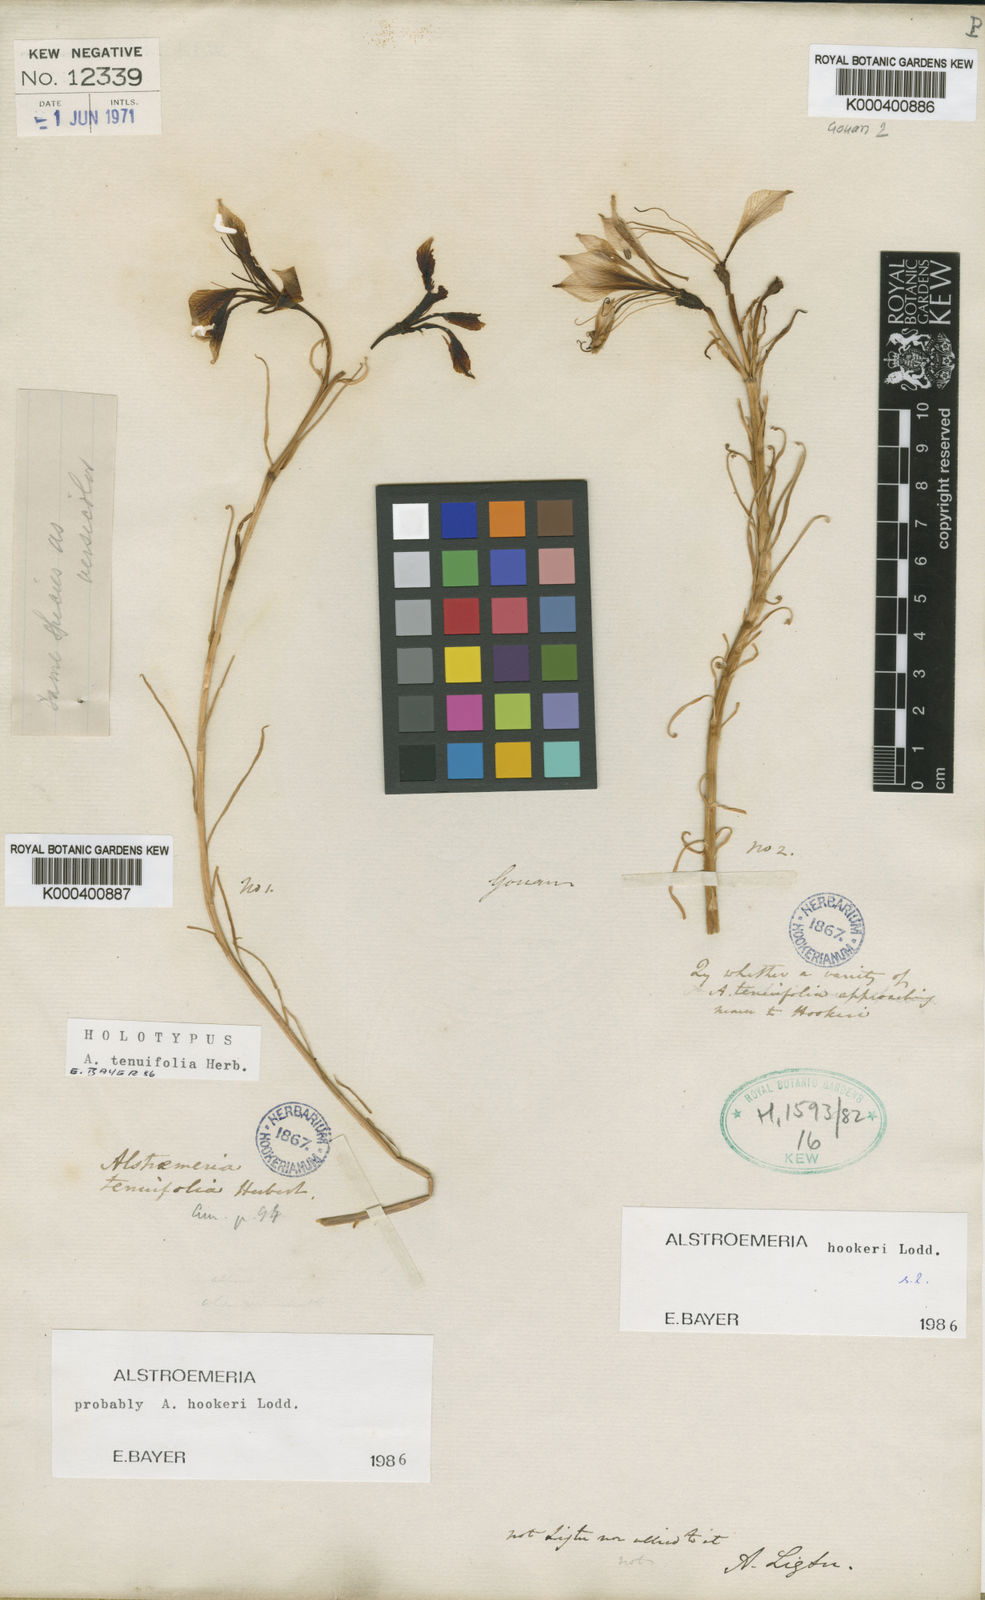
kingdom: Plantae
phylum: Tracheophyta
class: Liliopsida
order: Liliales
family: Alstroemeriaceae
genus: Alstroemeria
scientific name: Alstroemeria
